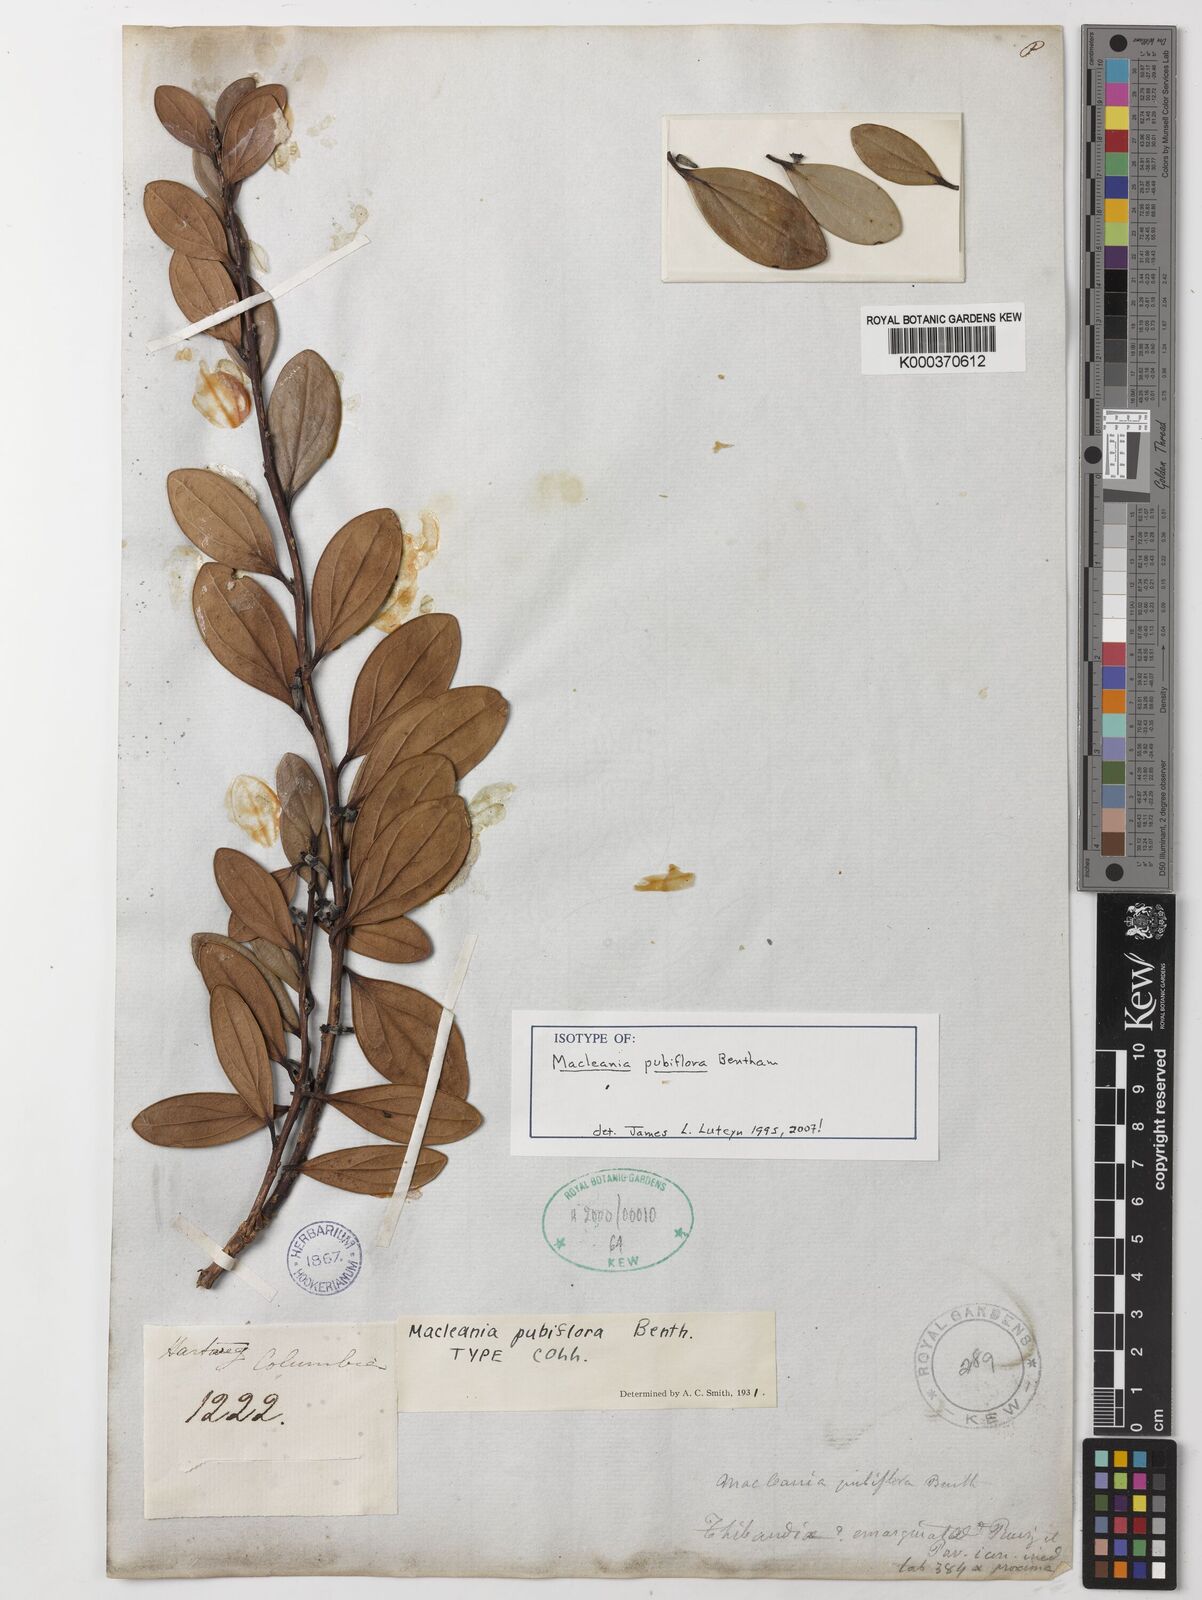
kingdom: Plantae
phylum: Tracheophyta
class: Magnoliopsida
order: Ericales
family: Ericaceae
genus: Macleania
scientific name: Macleania pubiflora
